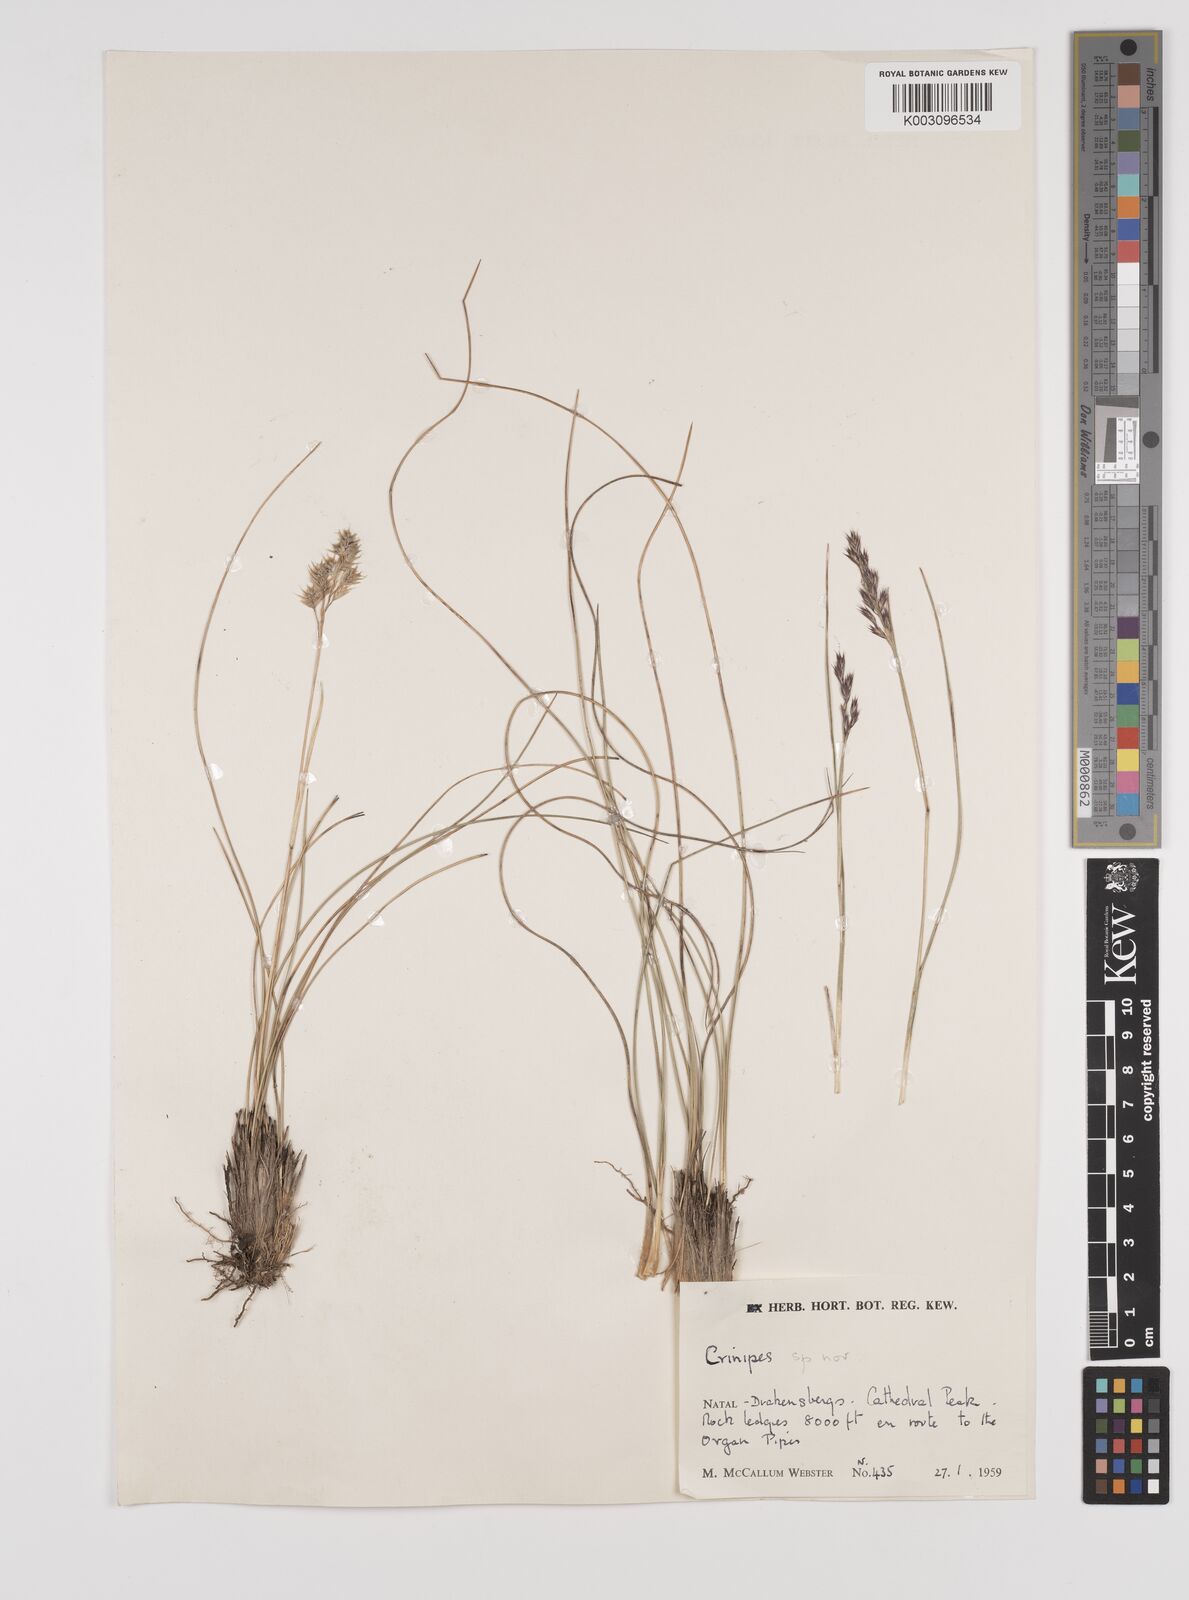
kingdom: Plantae
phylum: Tracheophyta
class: Liliopsida
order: Poales
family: Poaceae
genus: Styppeiochloa
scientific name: Styppeiochloa gynoglossa
